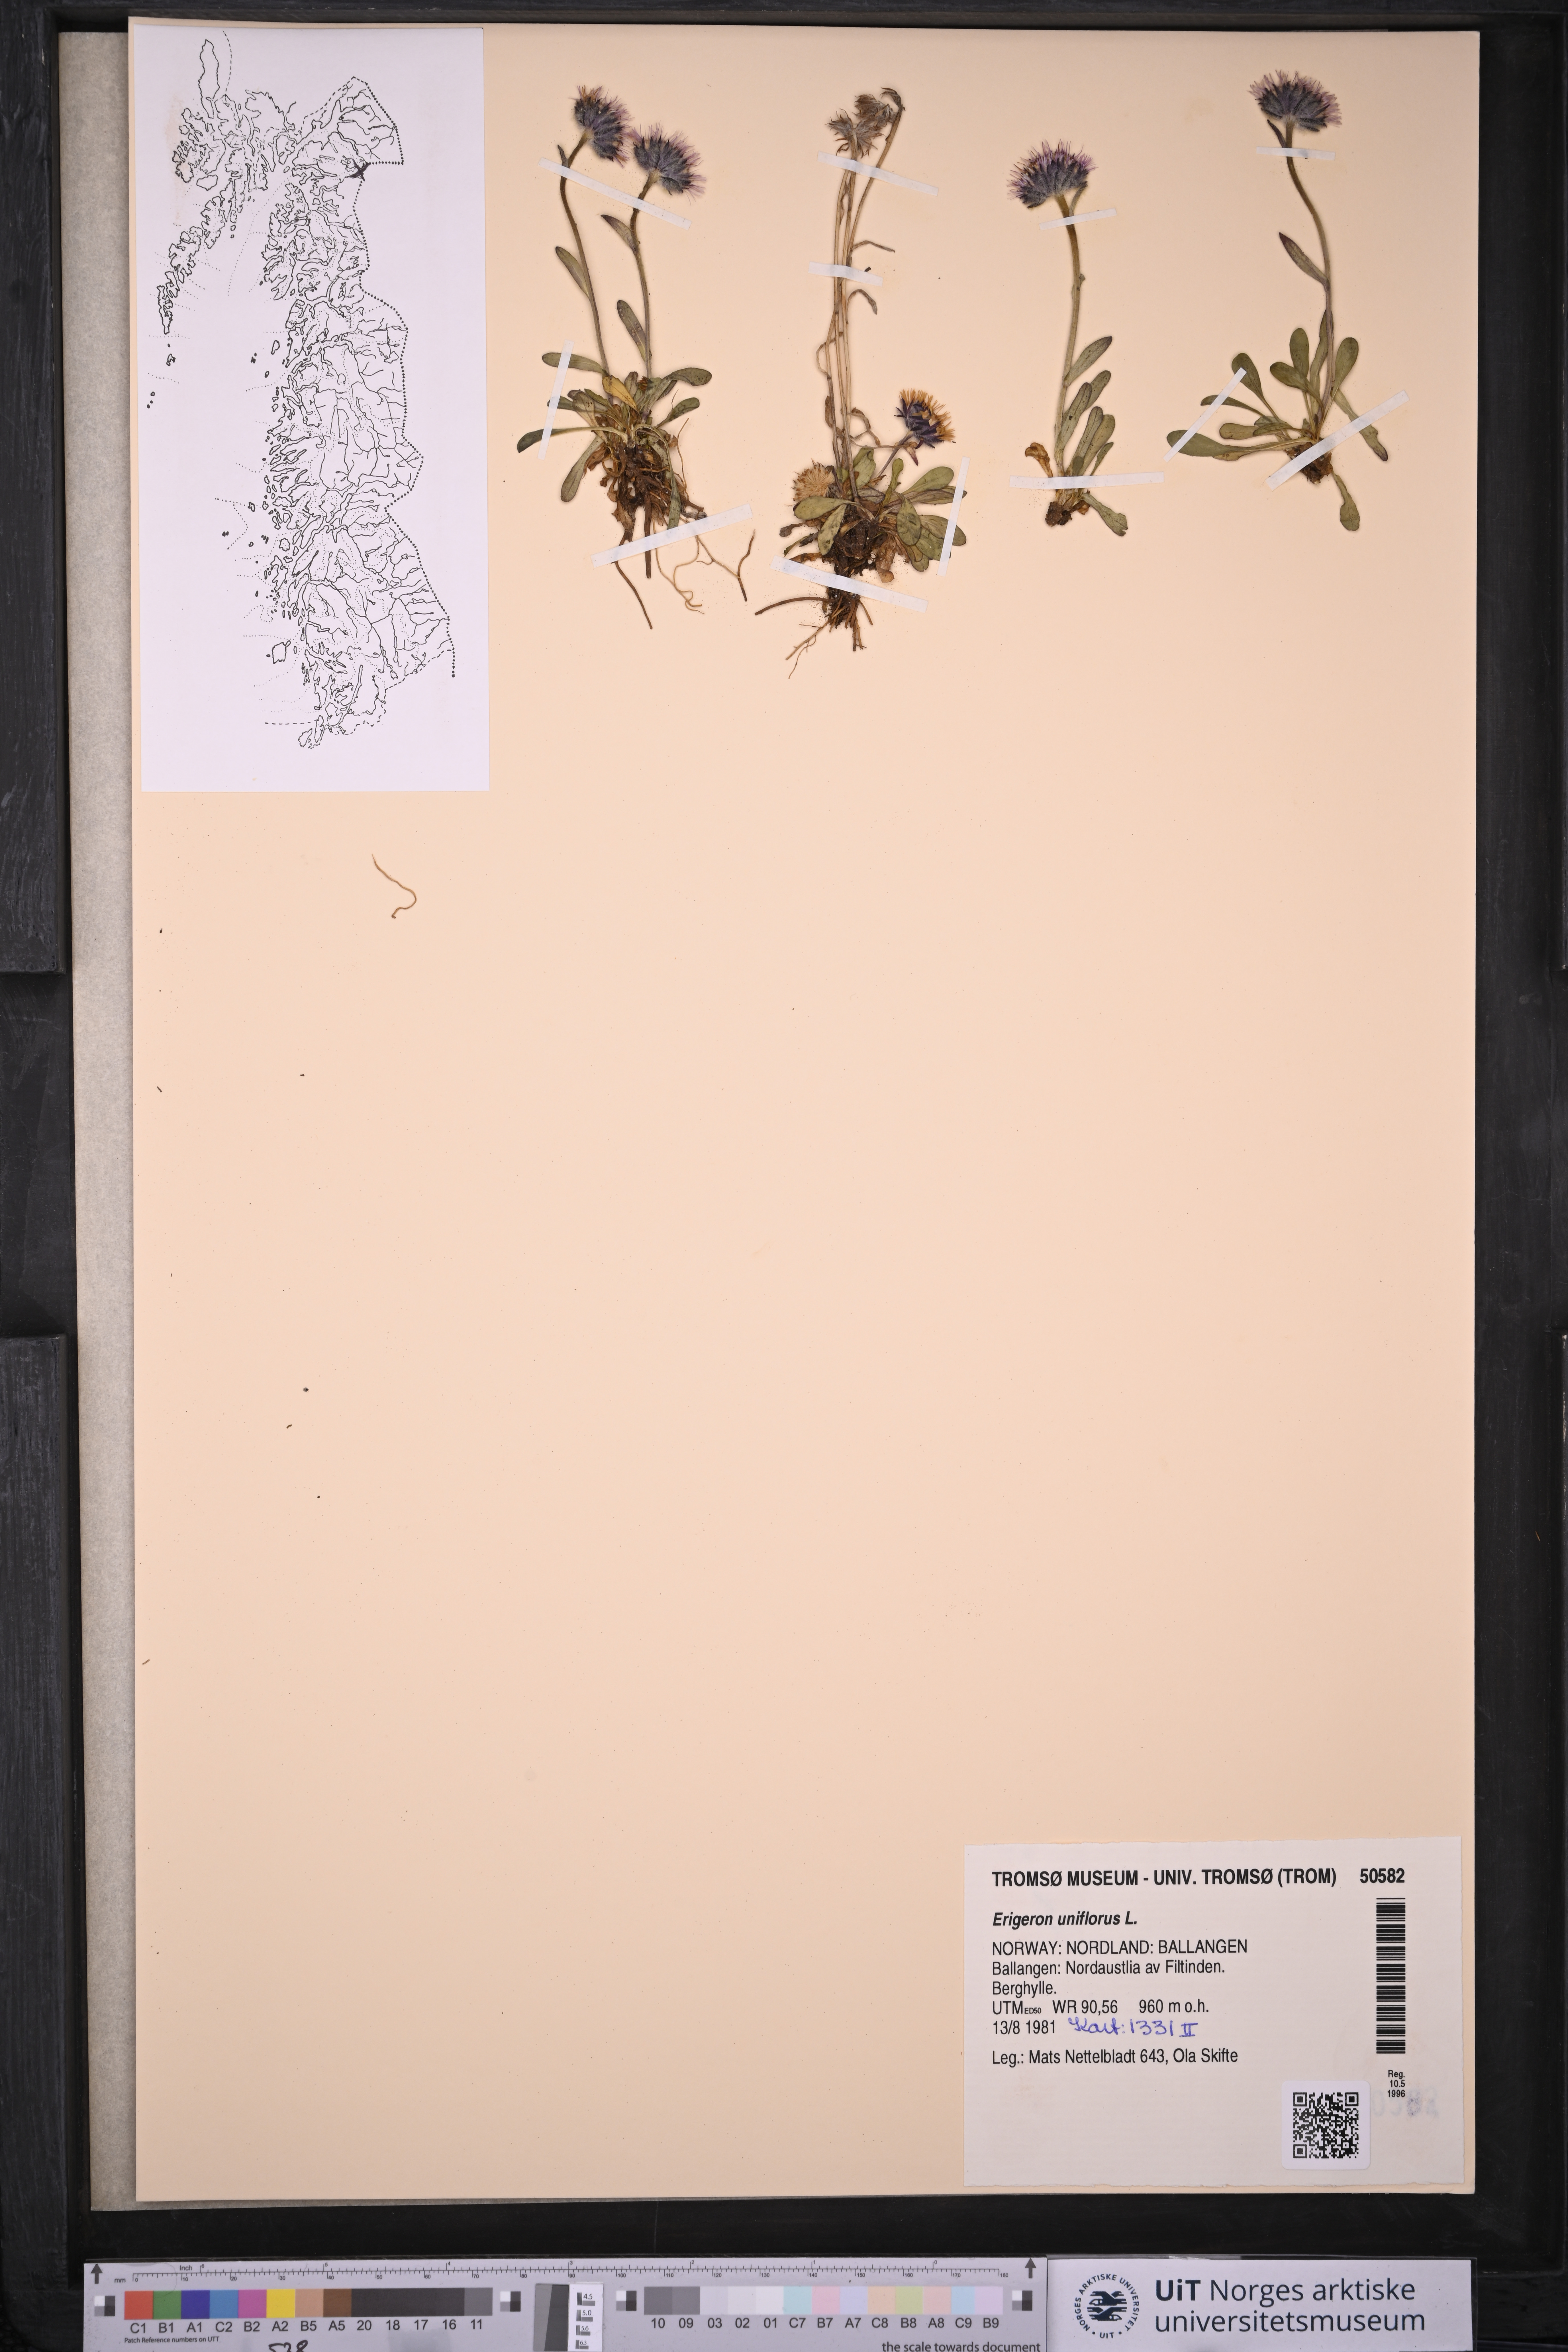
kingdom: Plantae
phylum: Tracheophyta
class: Magnoliopsida
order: Asterales
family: Asteraceae
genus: Erigeron
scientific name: Erigeron uniflorus
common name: Northern daisy
